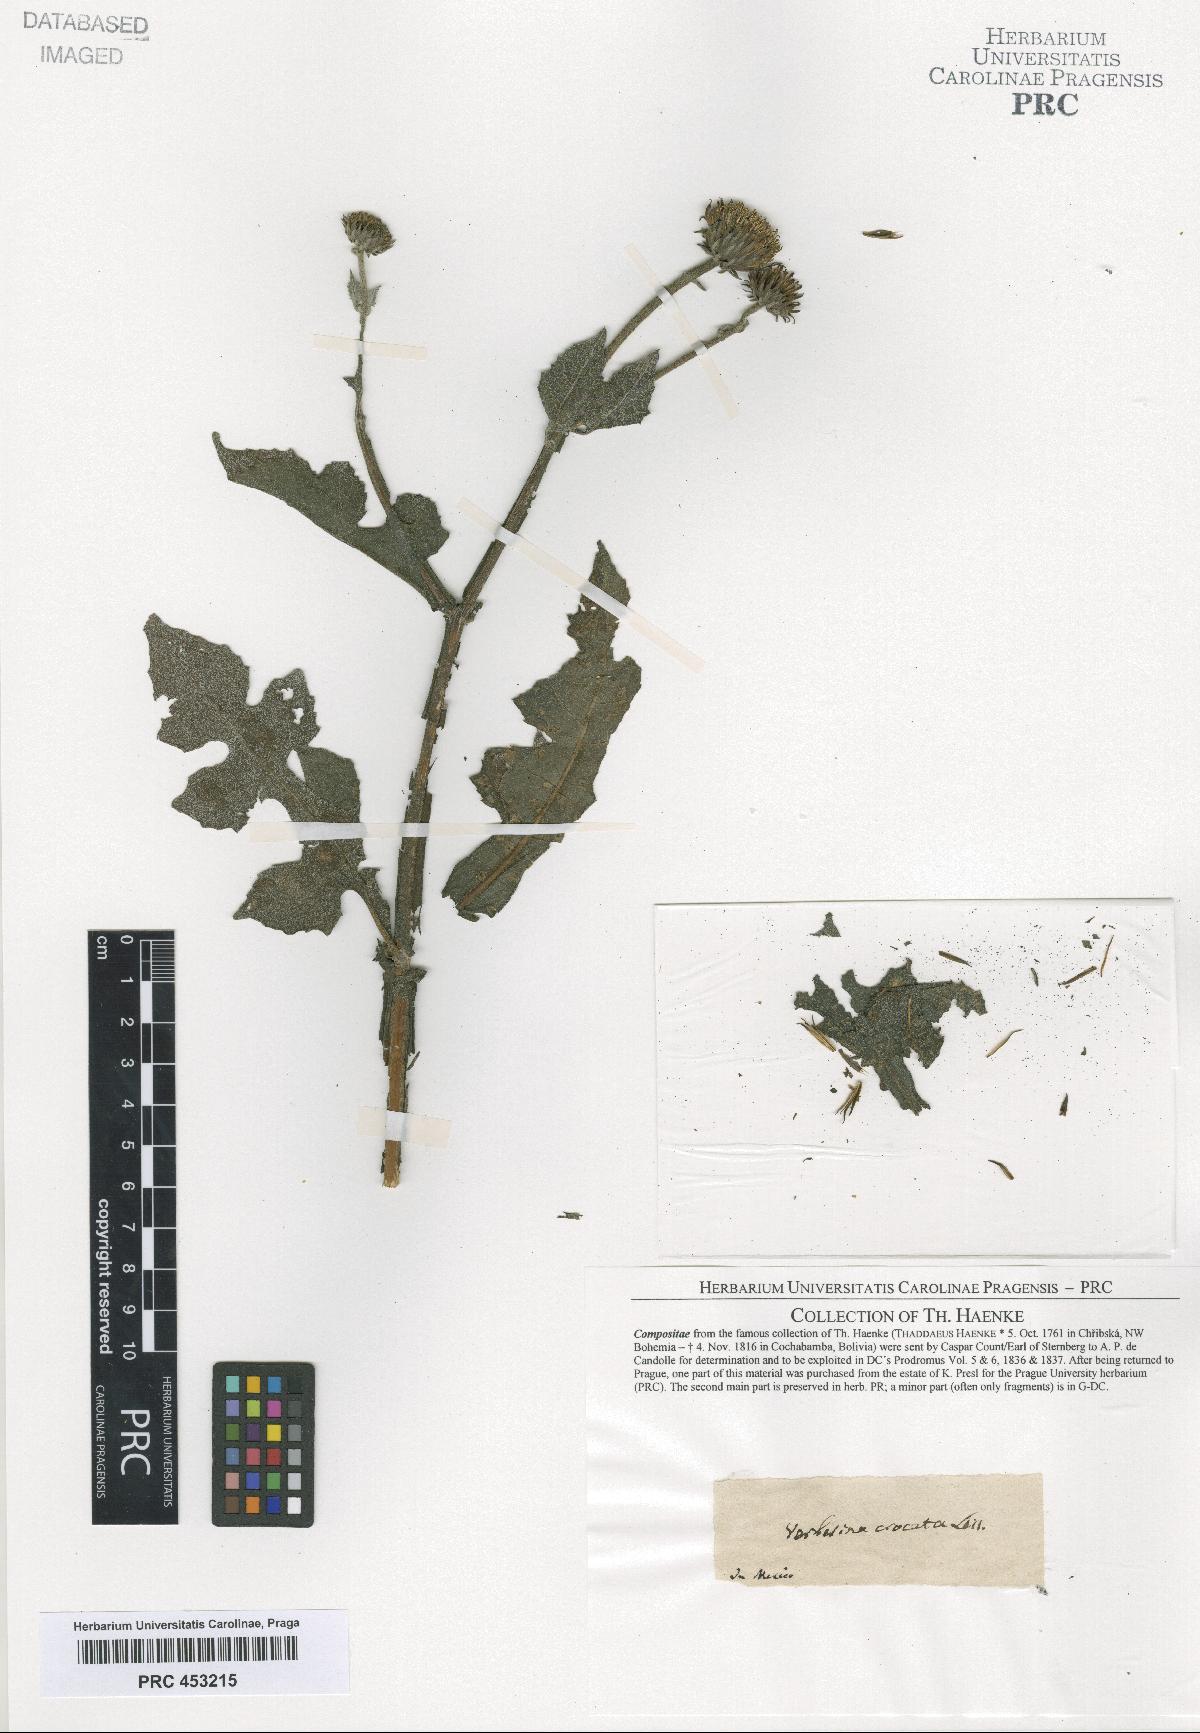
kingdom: Plantae
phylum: Tracheophyta
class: Magnoliopsida
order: Asterales
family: Asteraceae
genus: Verbesina
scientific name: Verbesina
